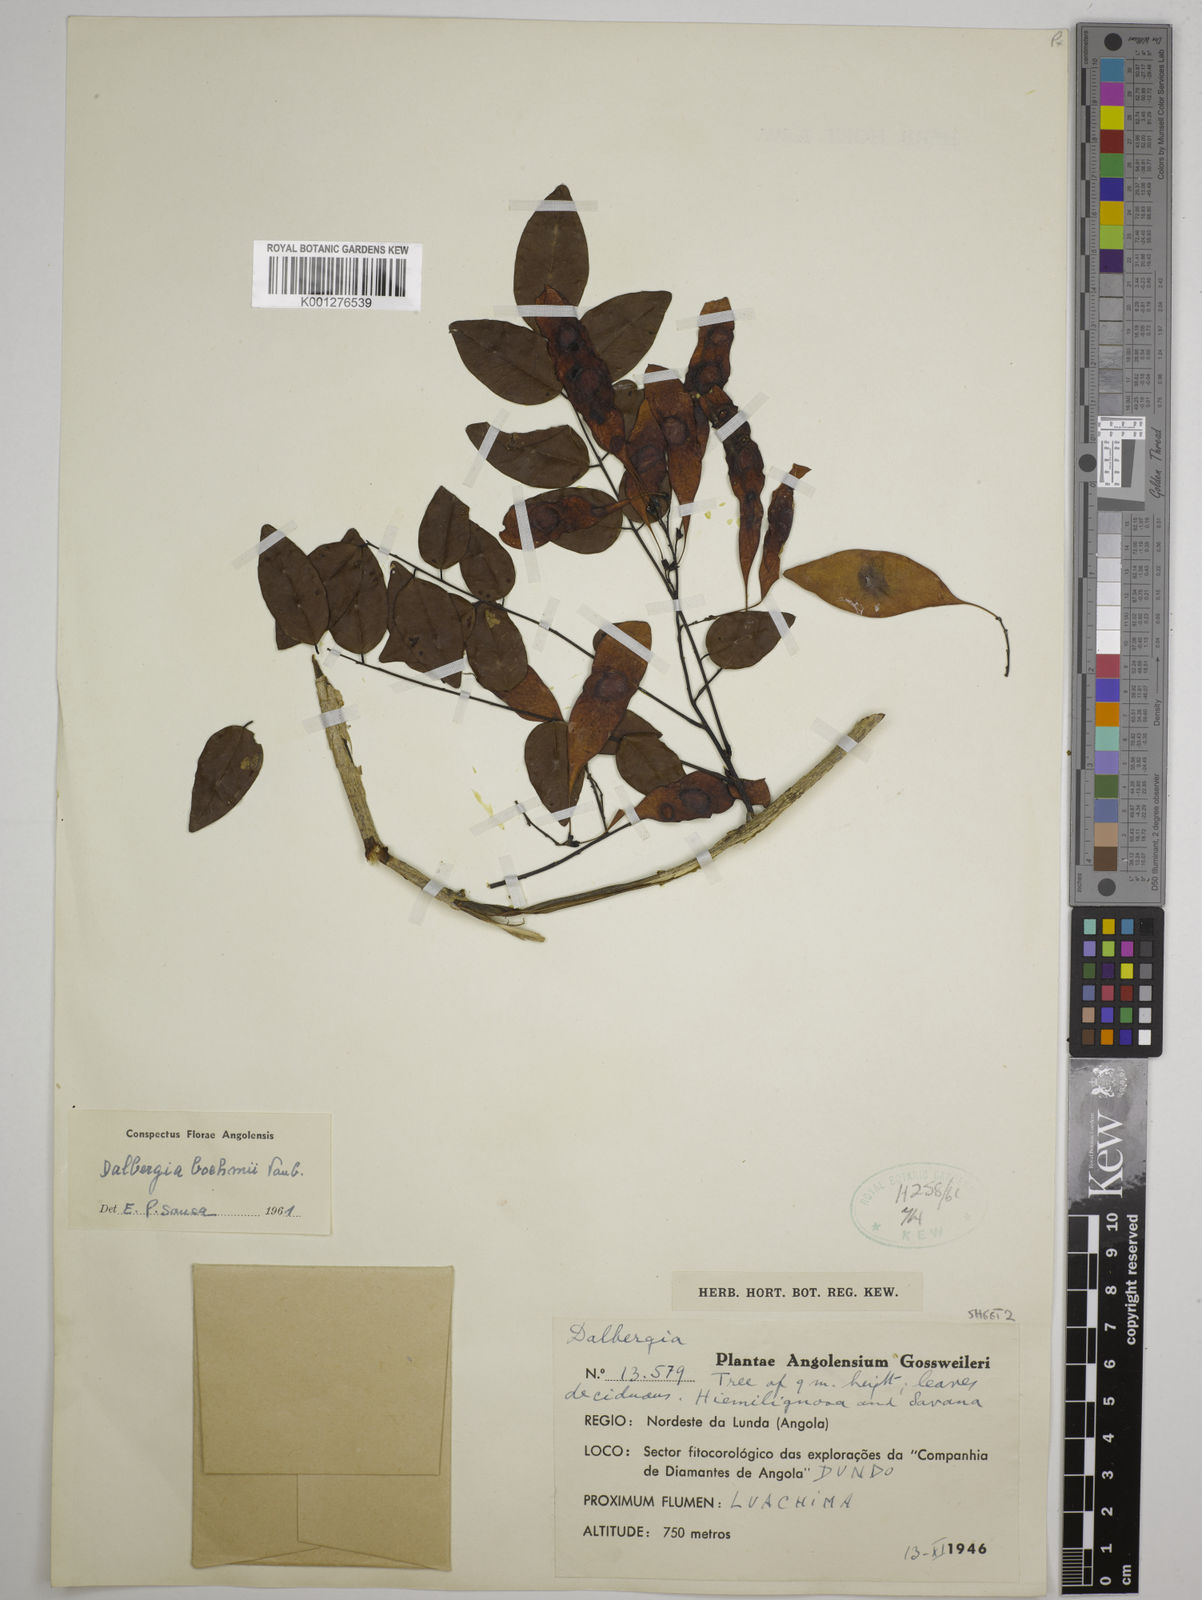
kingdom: Plantae
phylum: Tracheophyta
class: Magnoliopsida
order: Fabales
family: Fabaceae
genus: Dalbergia
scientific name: Dalbergia boehmii
